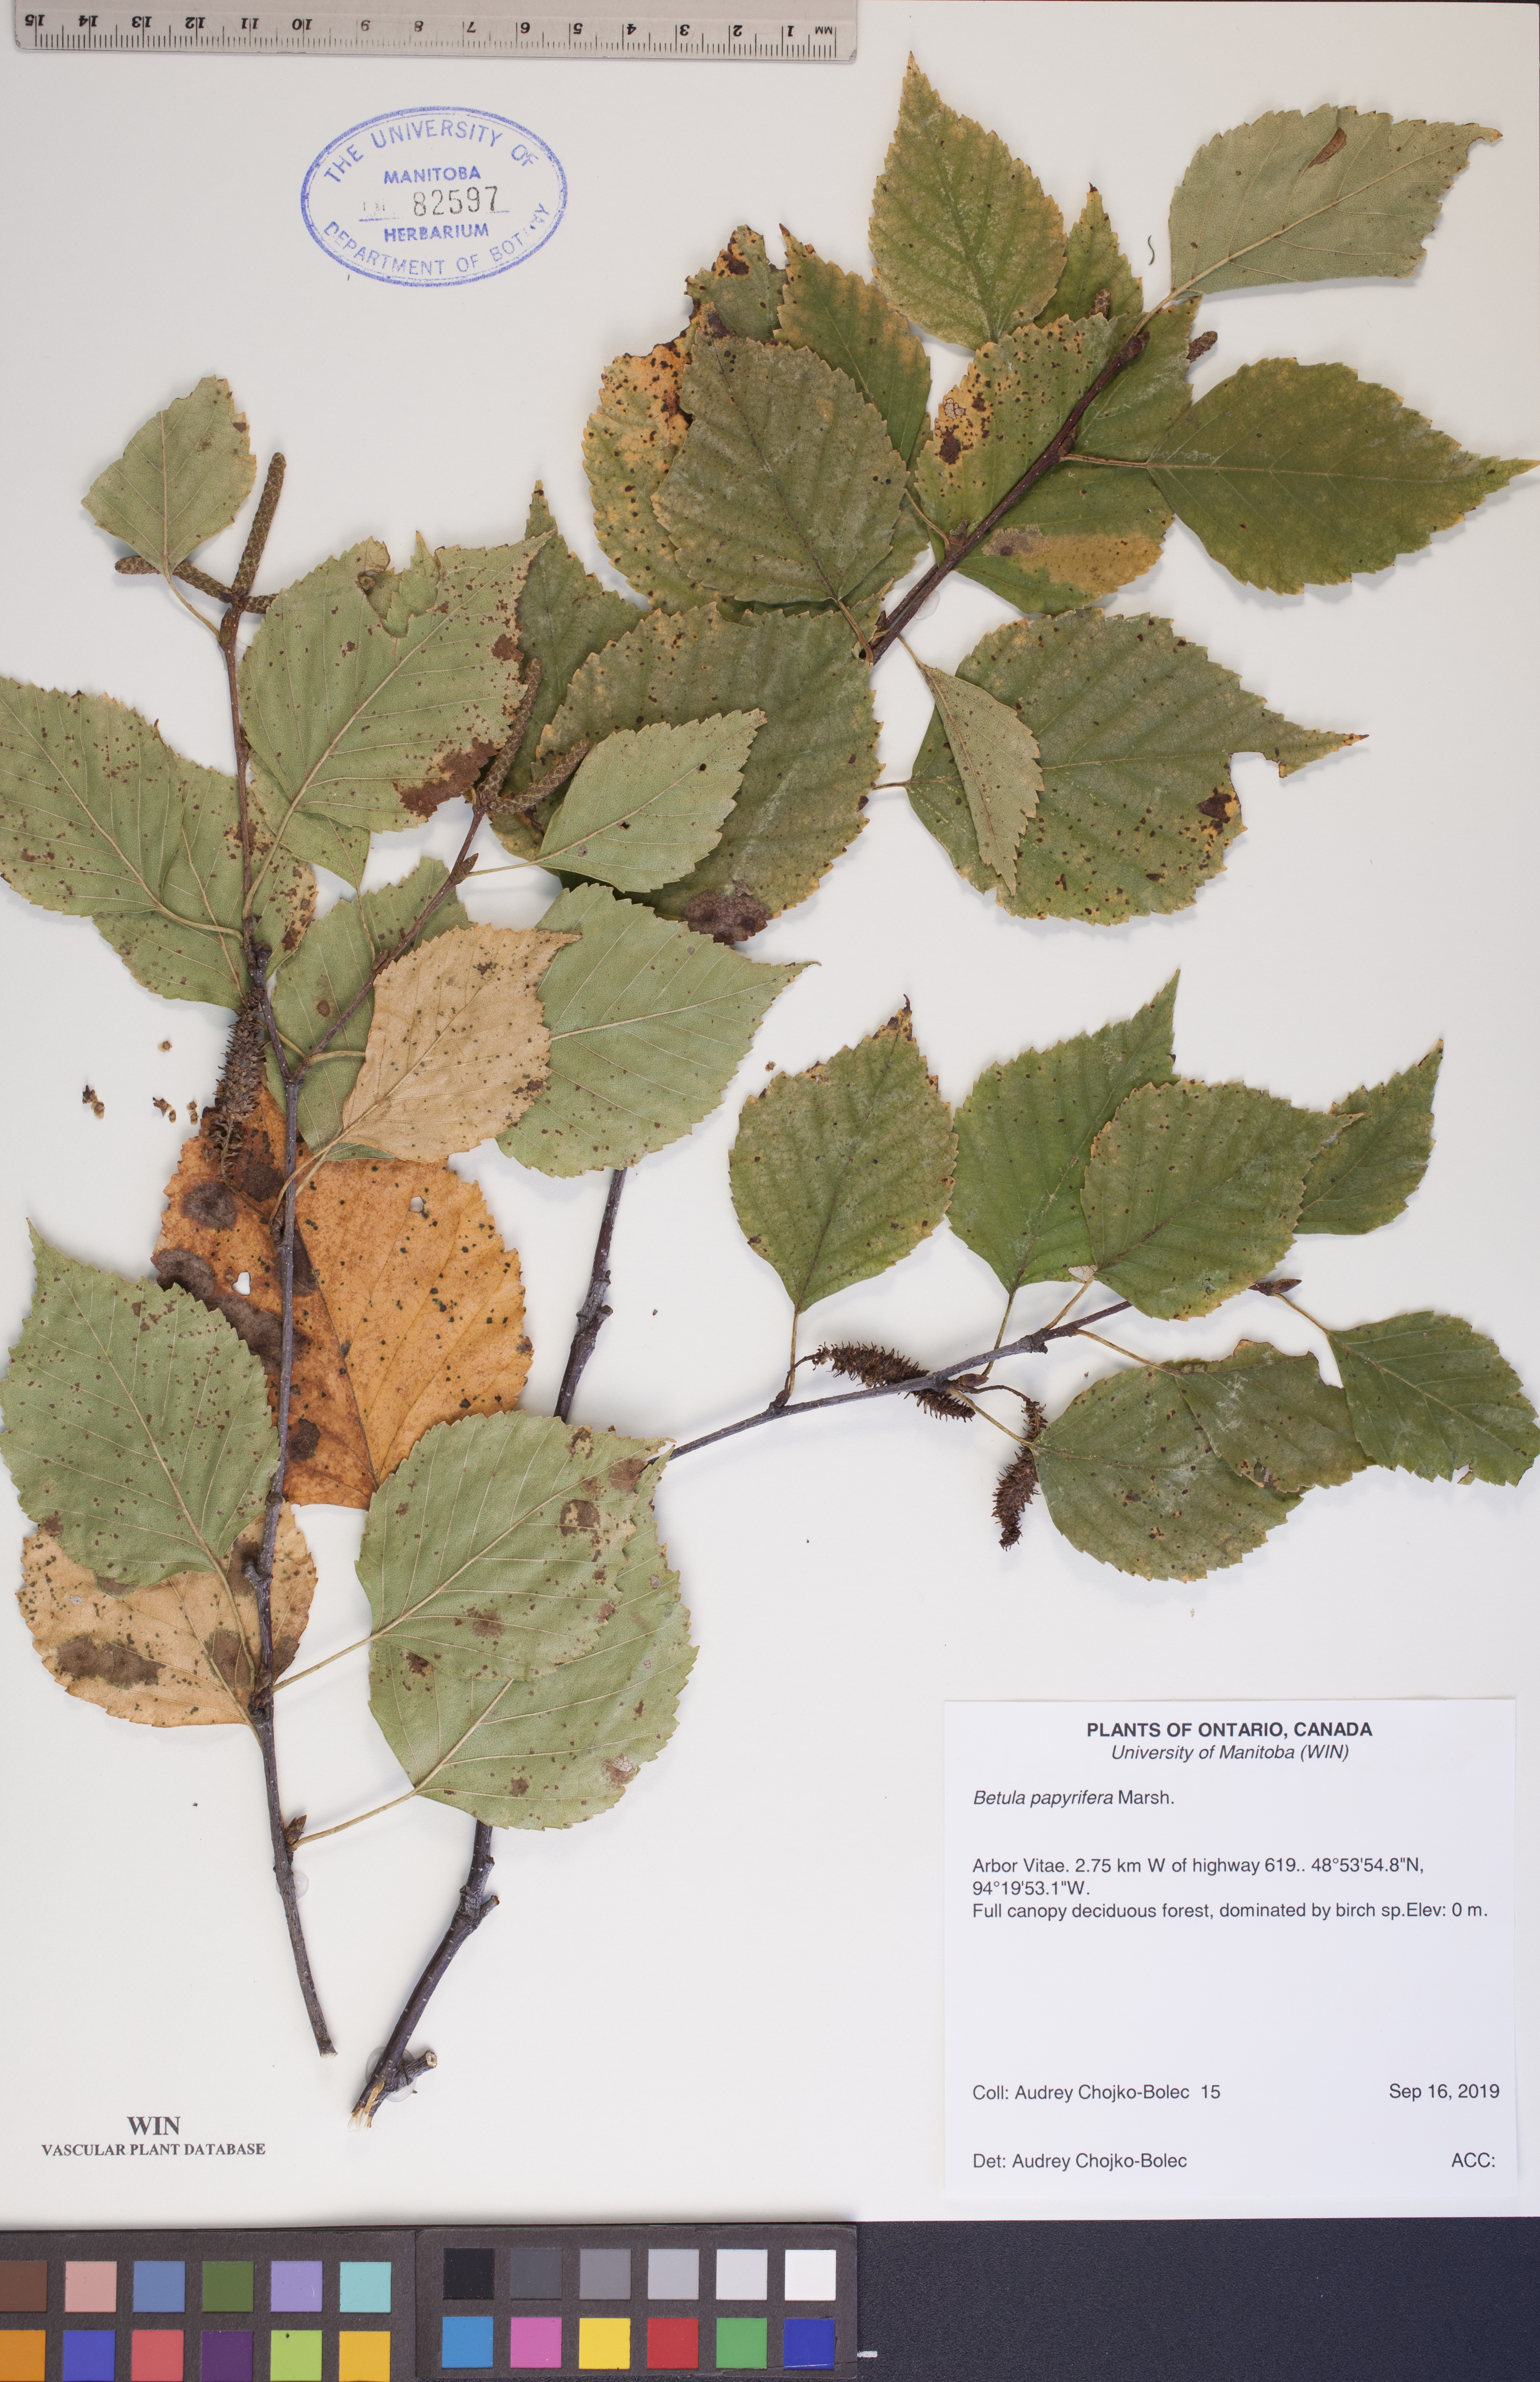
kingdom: Plantae
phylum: Tracheophyta
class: Magnoliopsida
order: Fagales
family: Betulaceae
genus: Betula
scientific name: Betula papyrifera
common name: Paper birch
